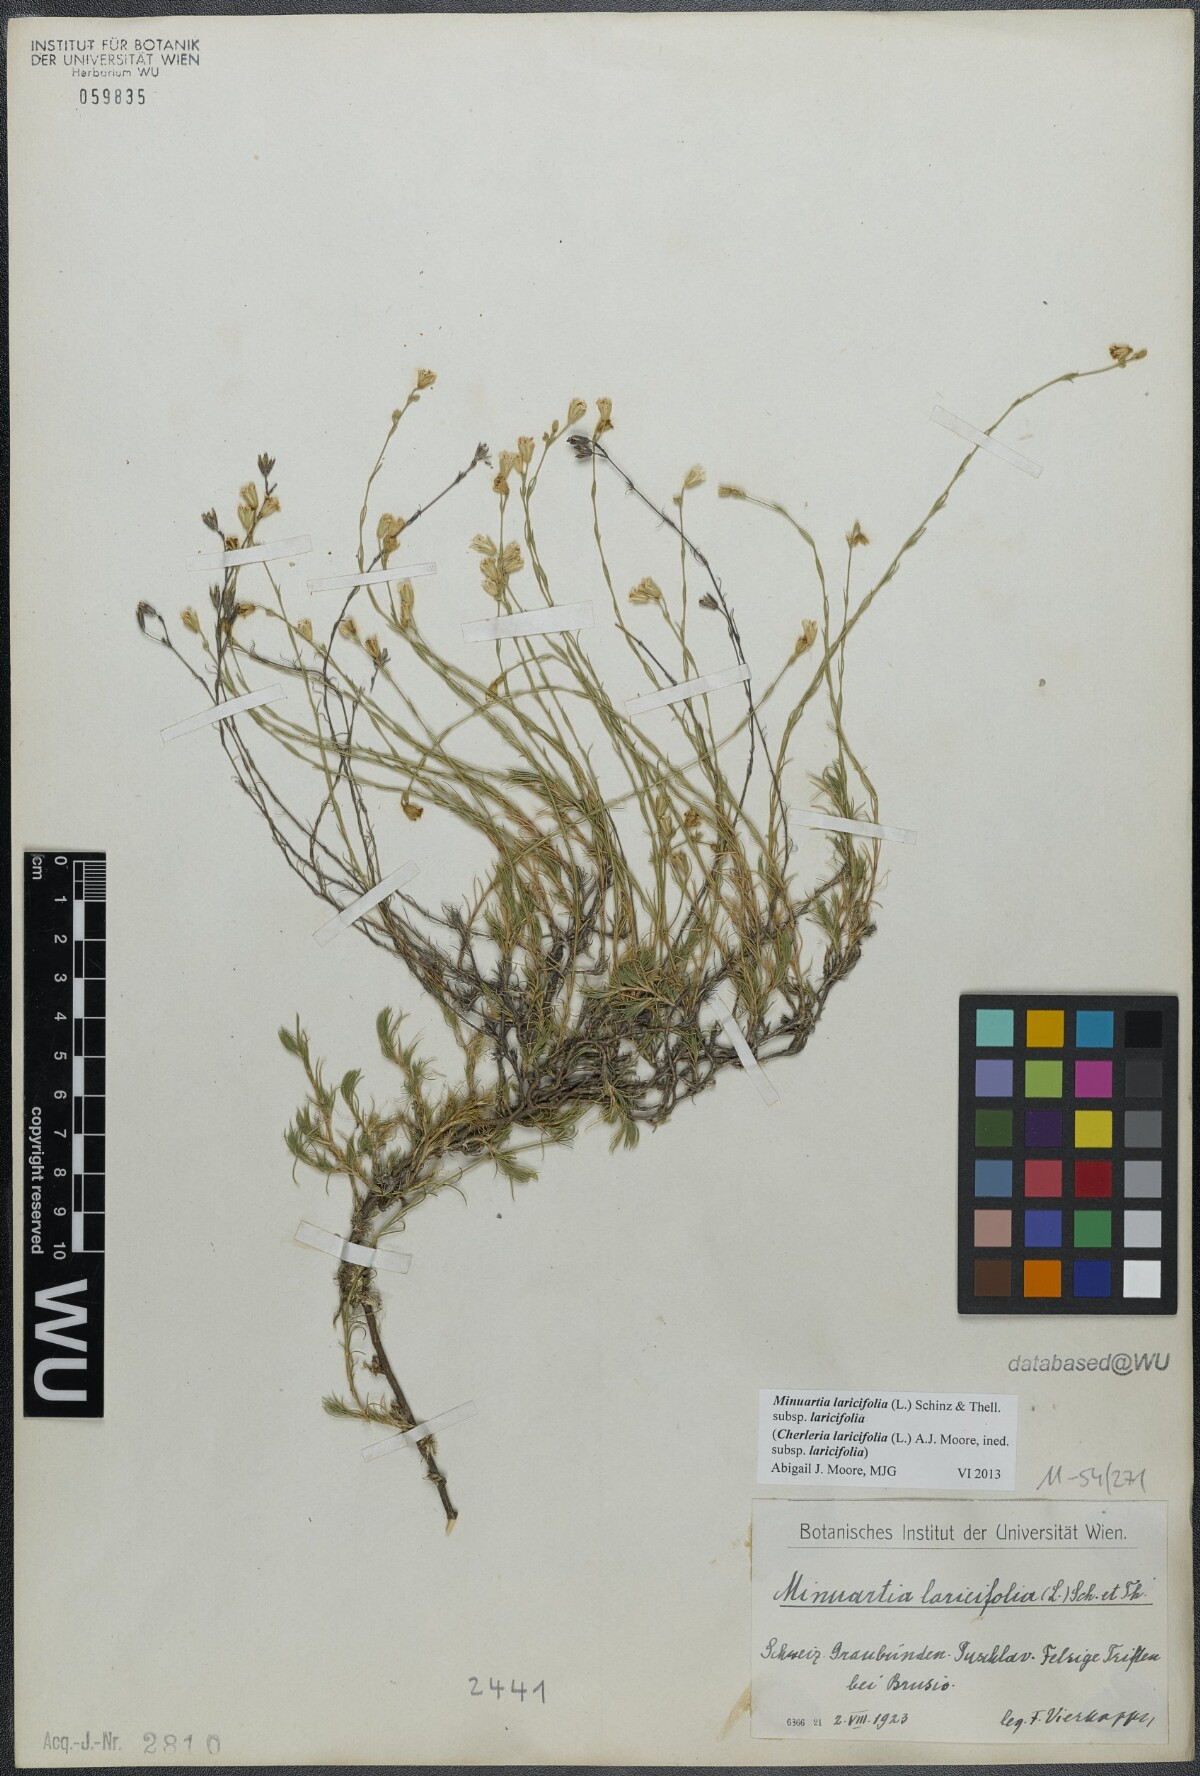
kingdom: Plantae
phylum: Tracheophyta
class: Magnoliopsida
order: Caryophyllales
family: Caryophyllaceae
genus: Cherleria
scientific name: Cherleria laricifolia
